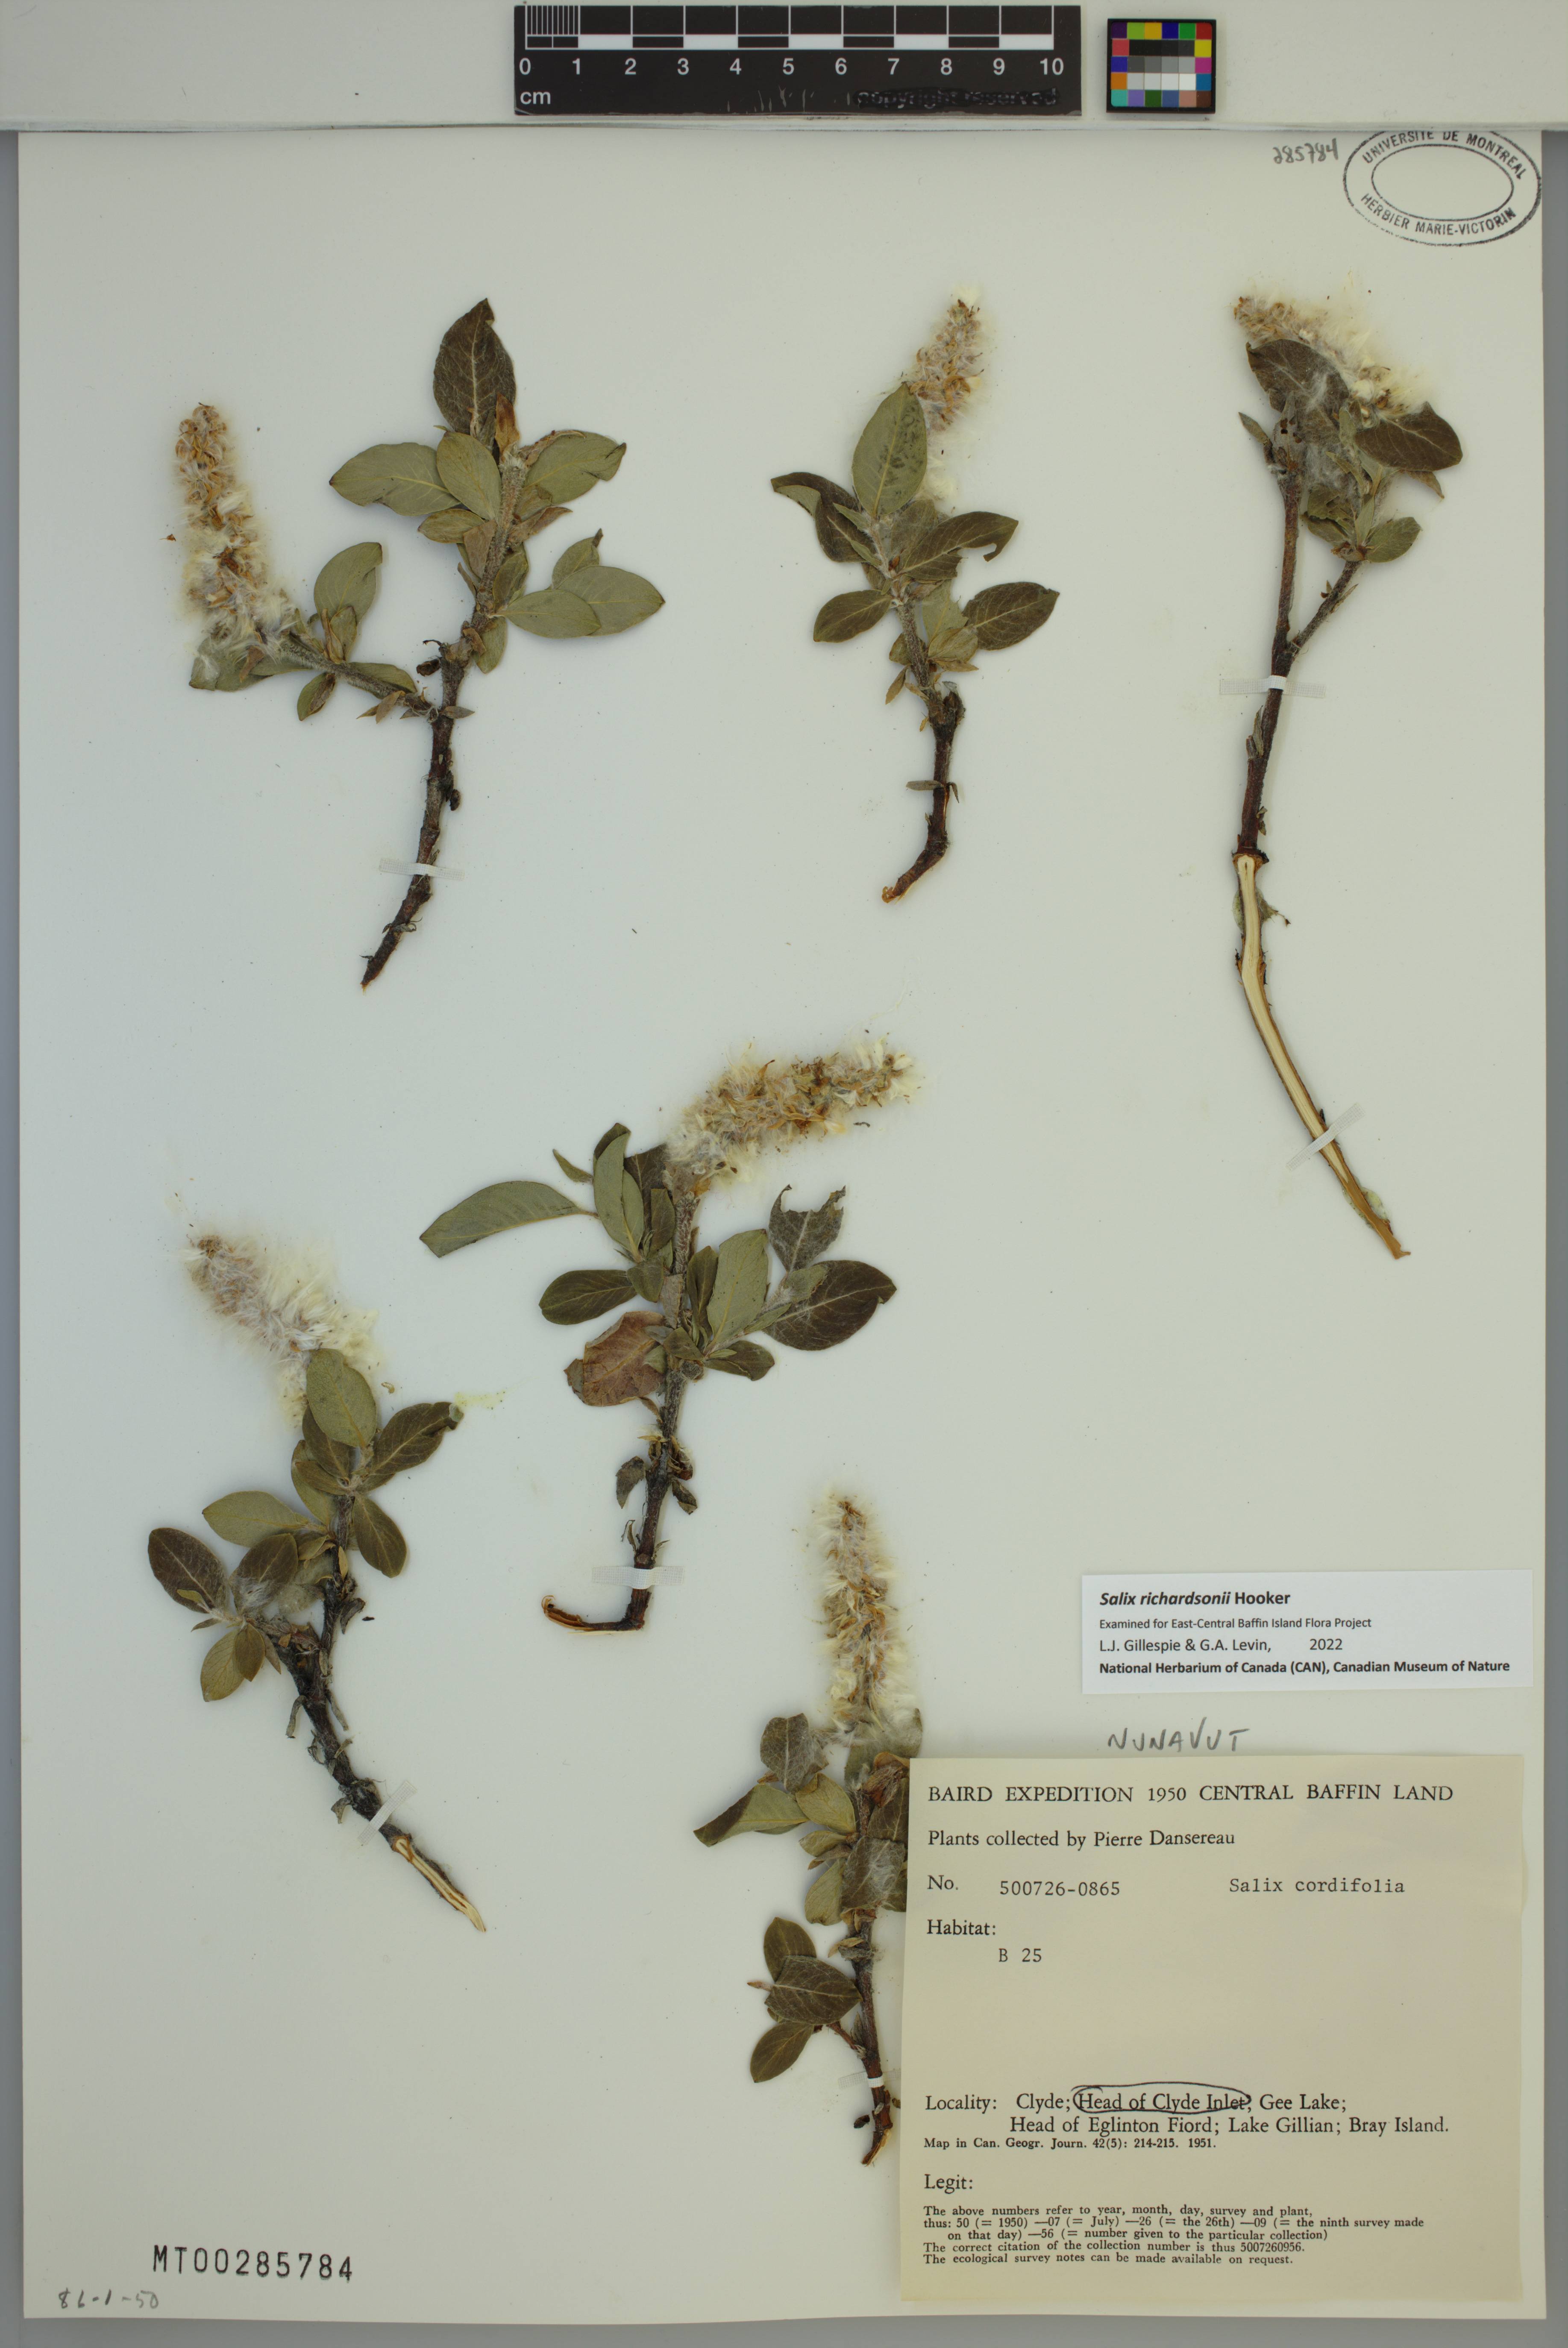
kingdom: Plantae
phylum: Tracheophyta
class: Magnoliopsida
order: Malpighiales
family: Salicaceae
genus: Salix
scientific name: Salix richardsonii
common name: Richardson’s willow
